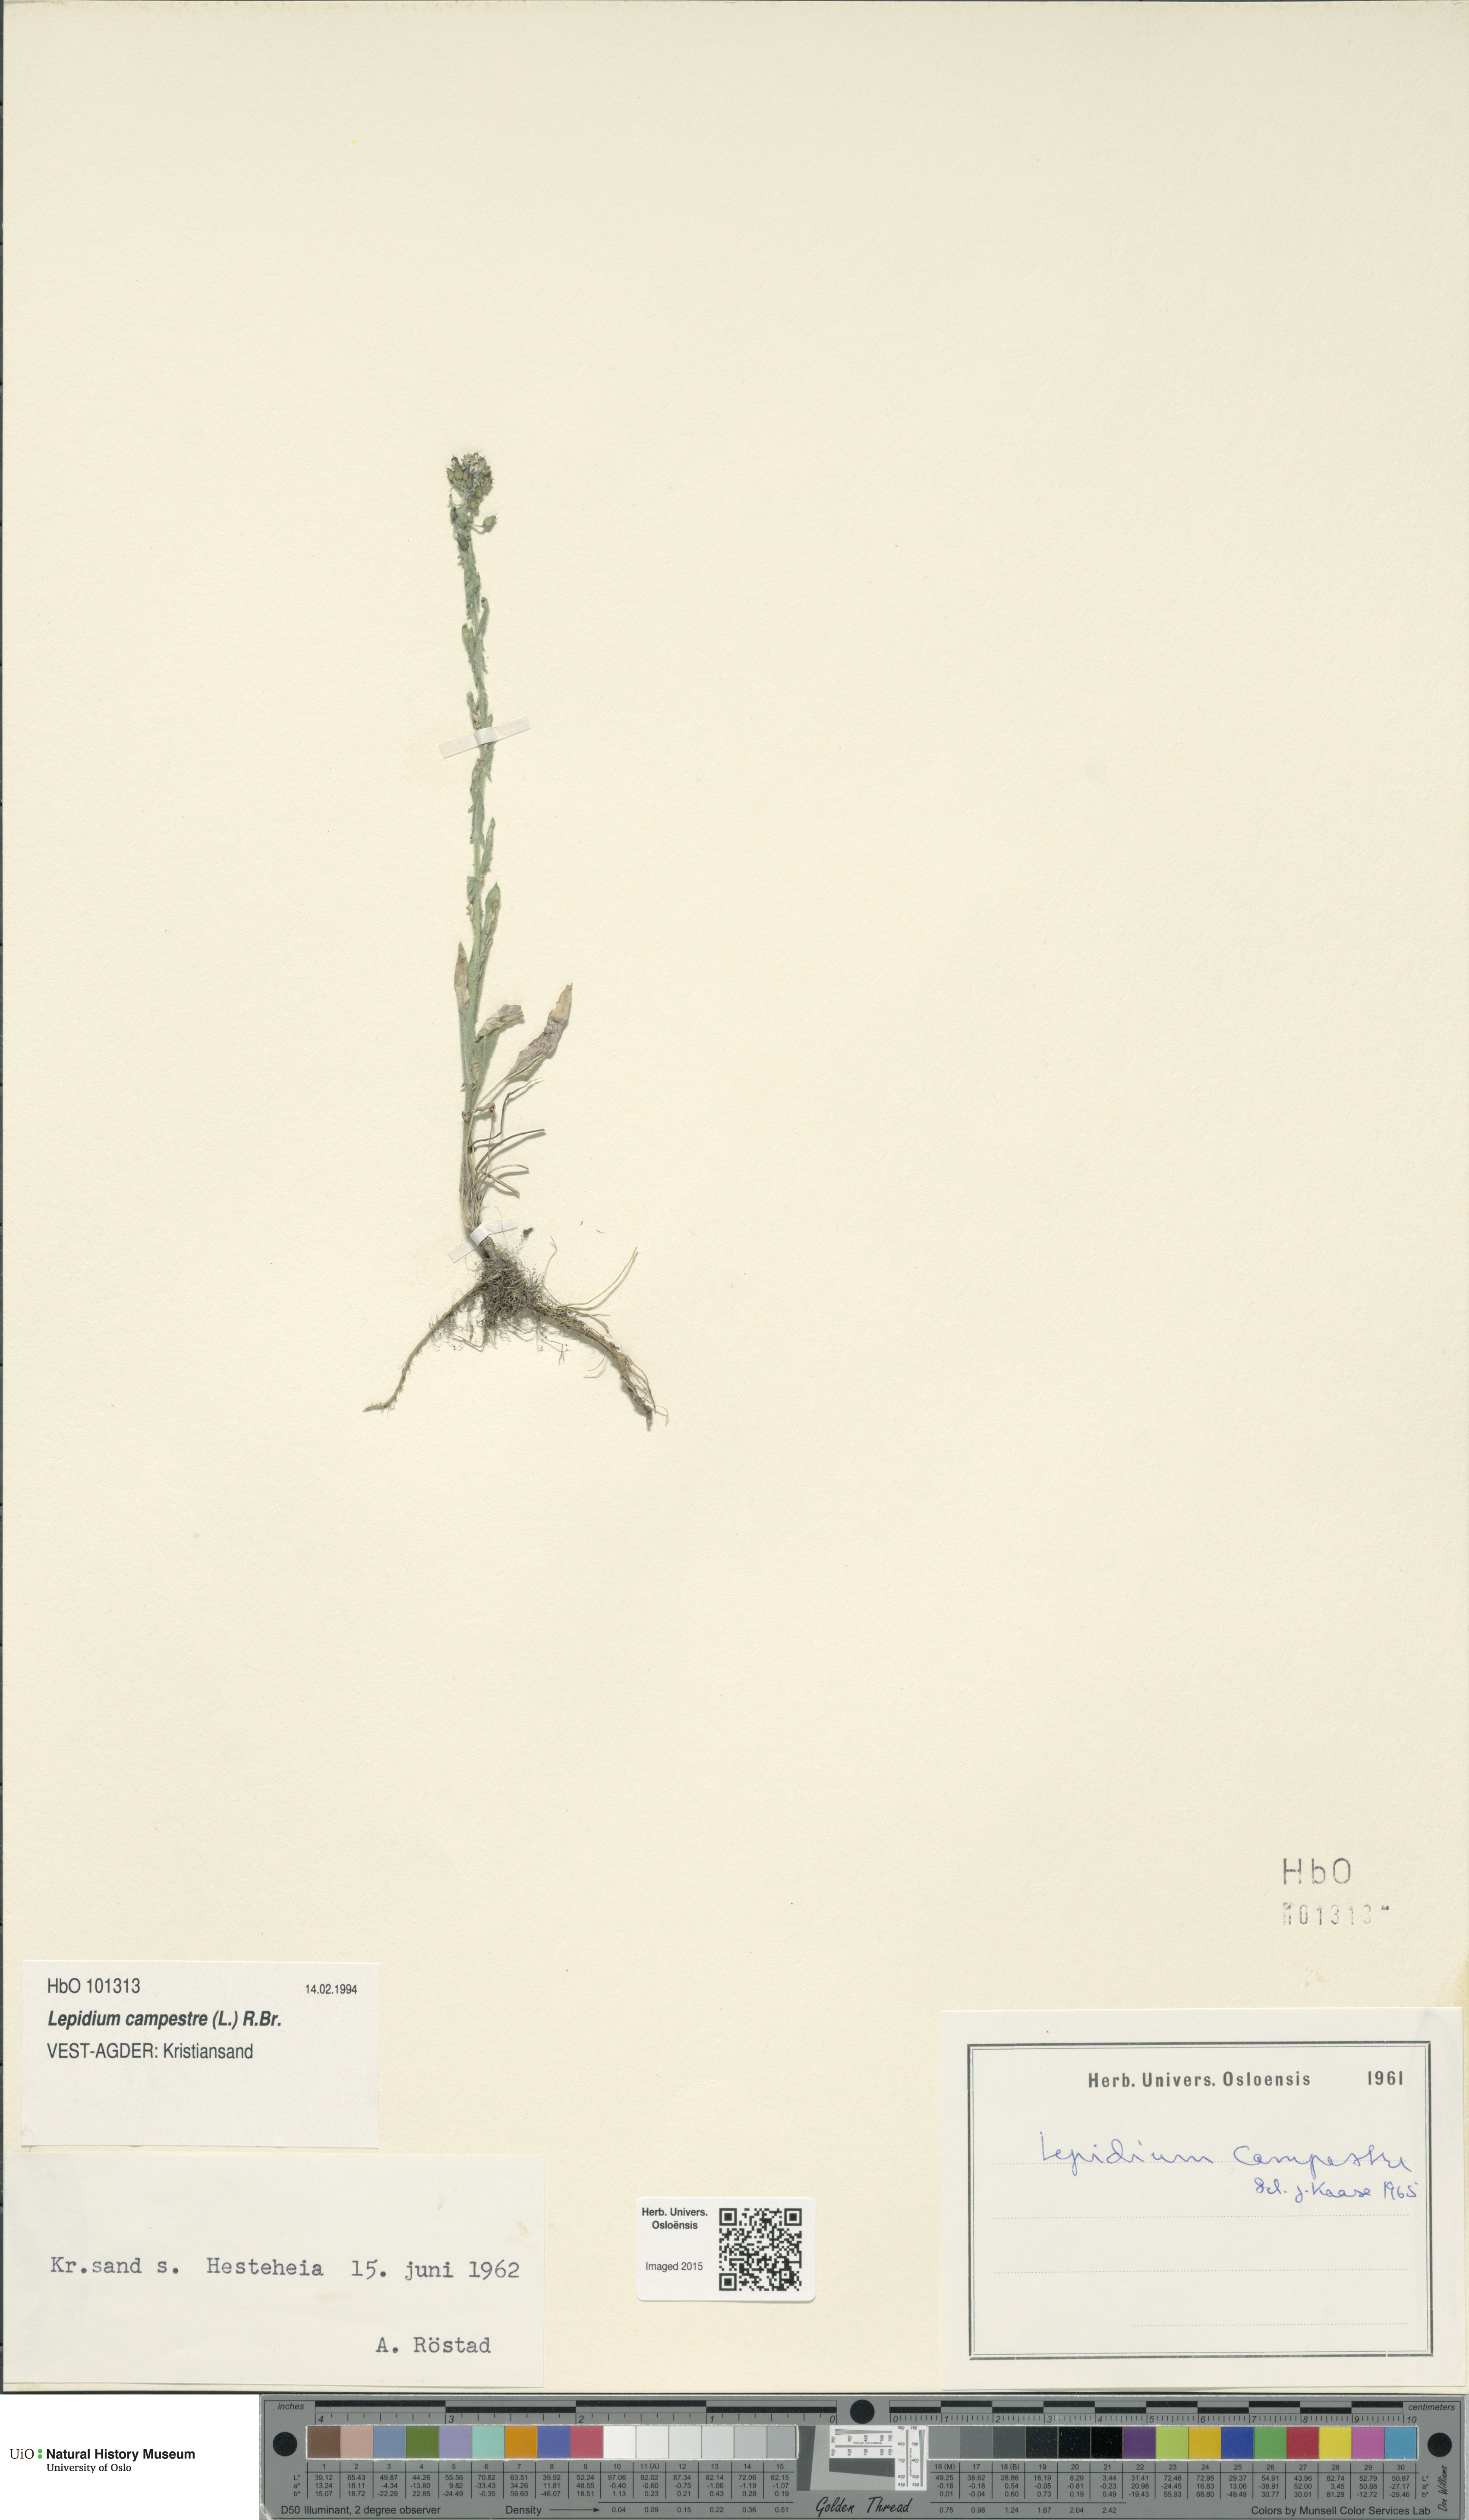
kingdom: Plantae
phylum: Tracheophyta
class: Magnoliopsida
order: Brassicales
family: Brassicaceae
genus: Lepidium
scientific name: Lepidium campestre
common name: Field pepperwort
